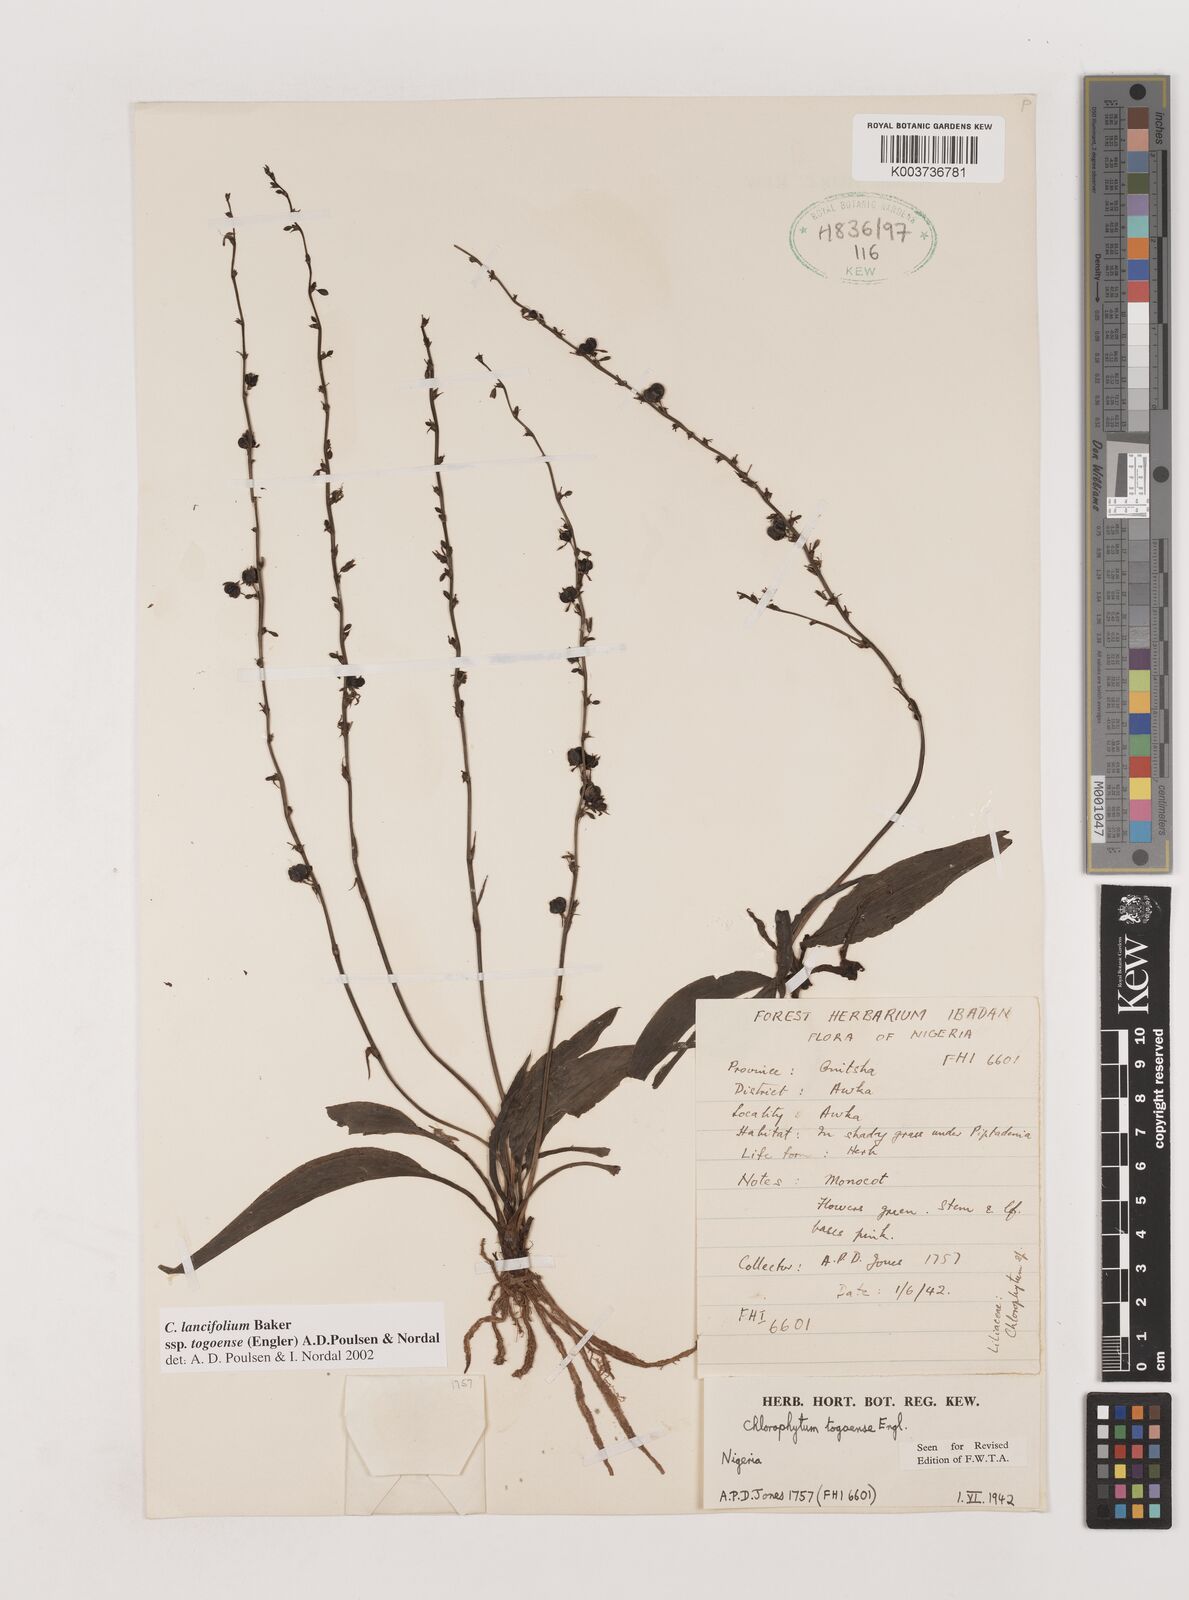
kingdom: Plantae
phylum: Tracheophyta
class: Liliopsida
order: Asparagales
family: Asparagaceae
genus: Chlorophytum
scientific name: Chlorophytum lancifolium
